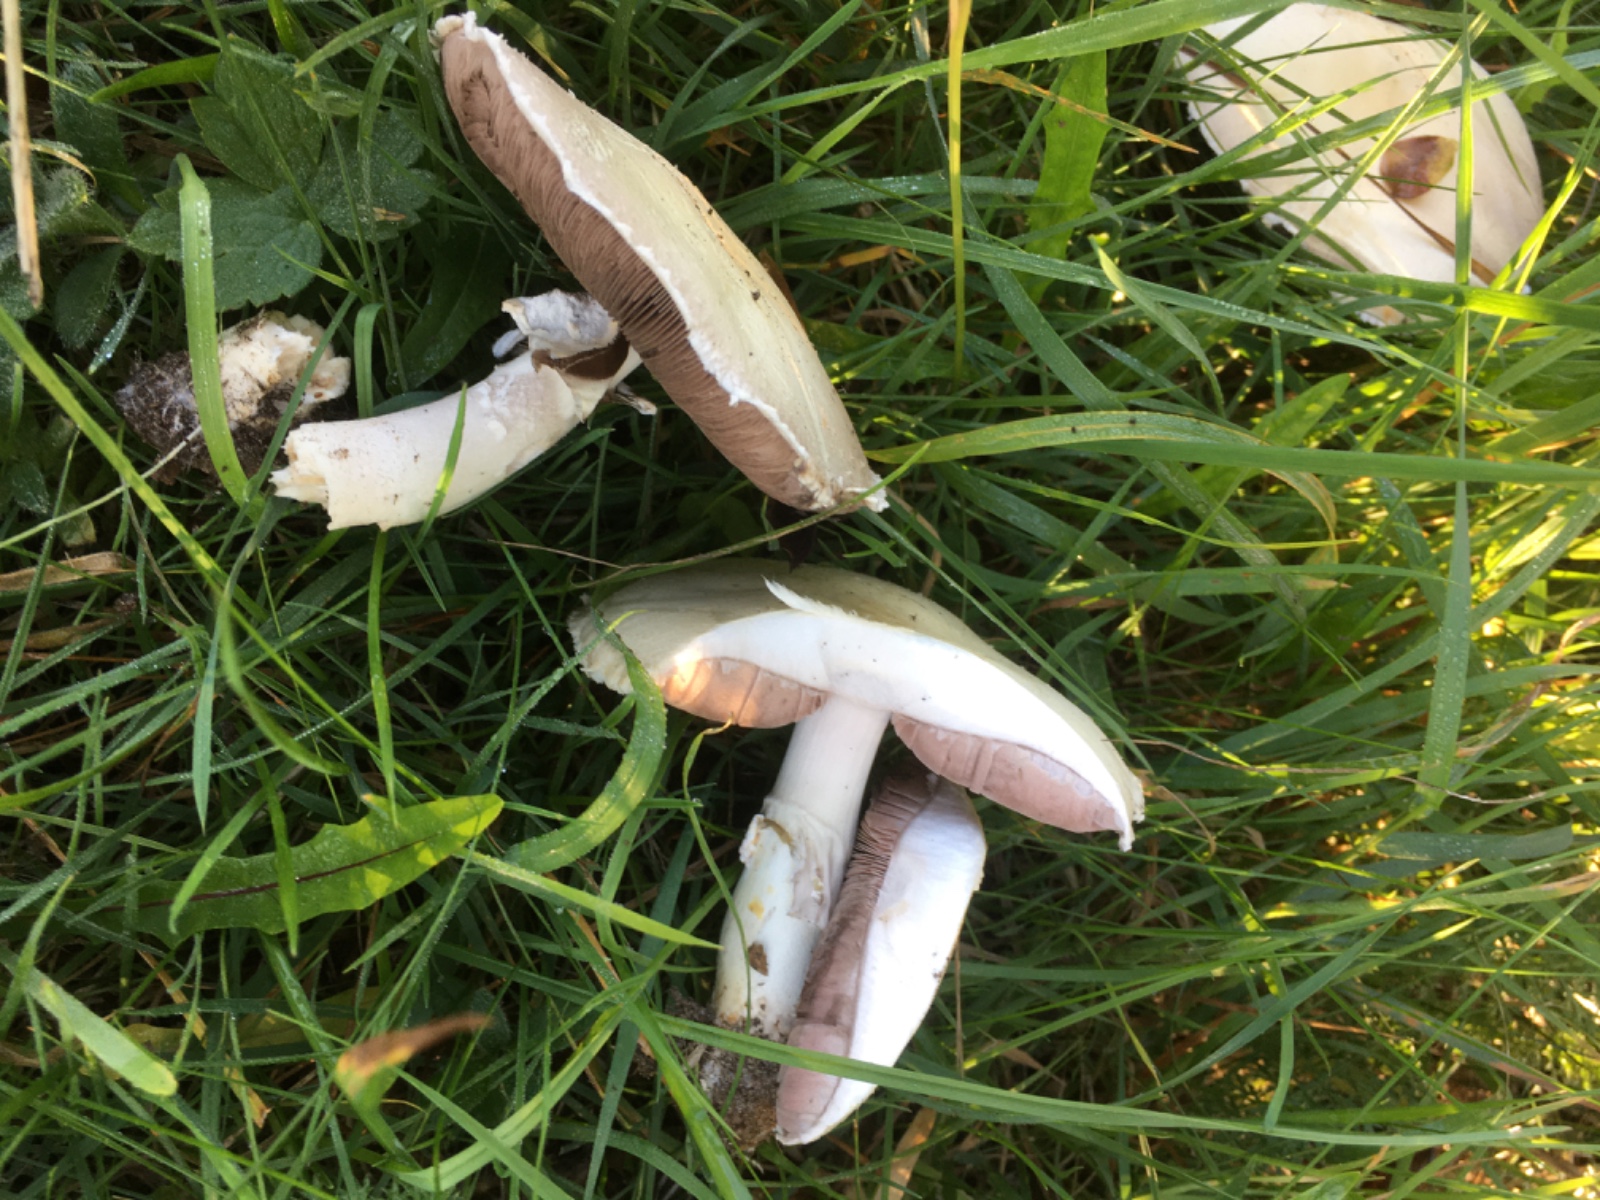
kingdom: Fungi
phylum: Basidiomycota
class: Agaricomycetes
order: Agaricales
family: Agaricaceae
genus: Agaricus
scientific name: Agaricus
